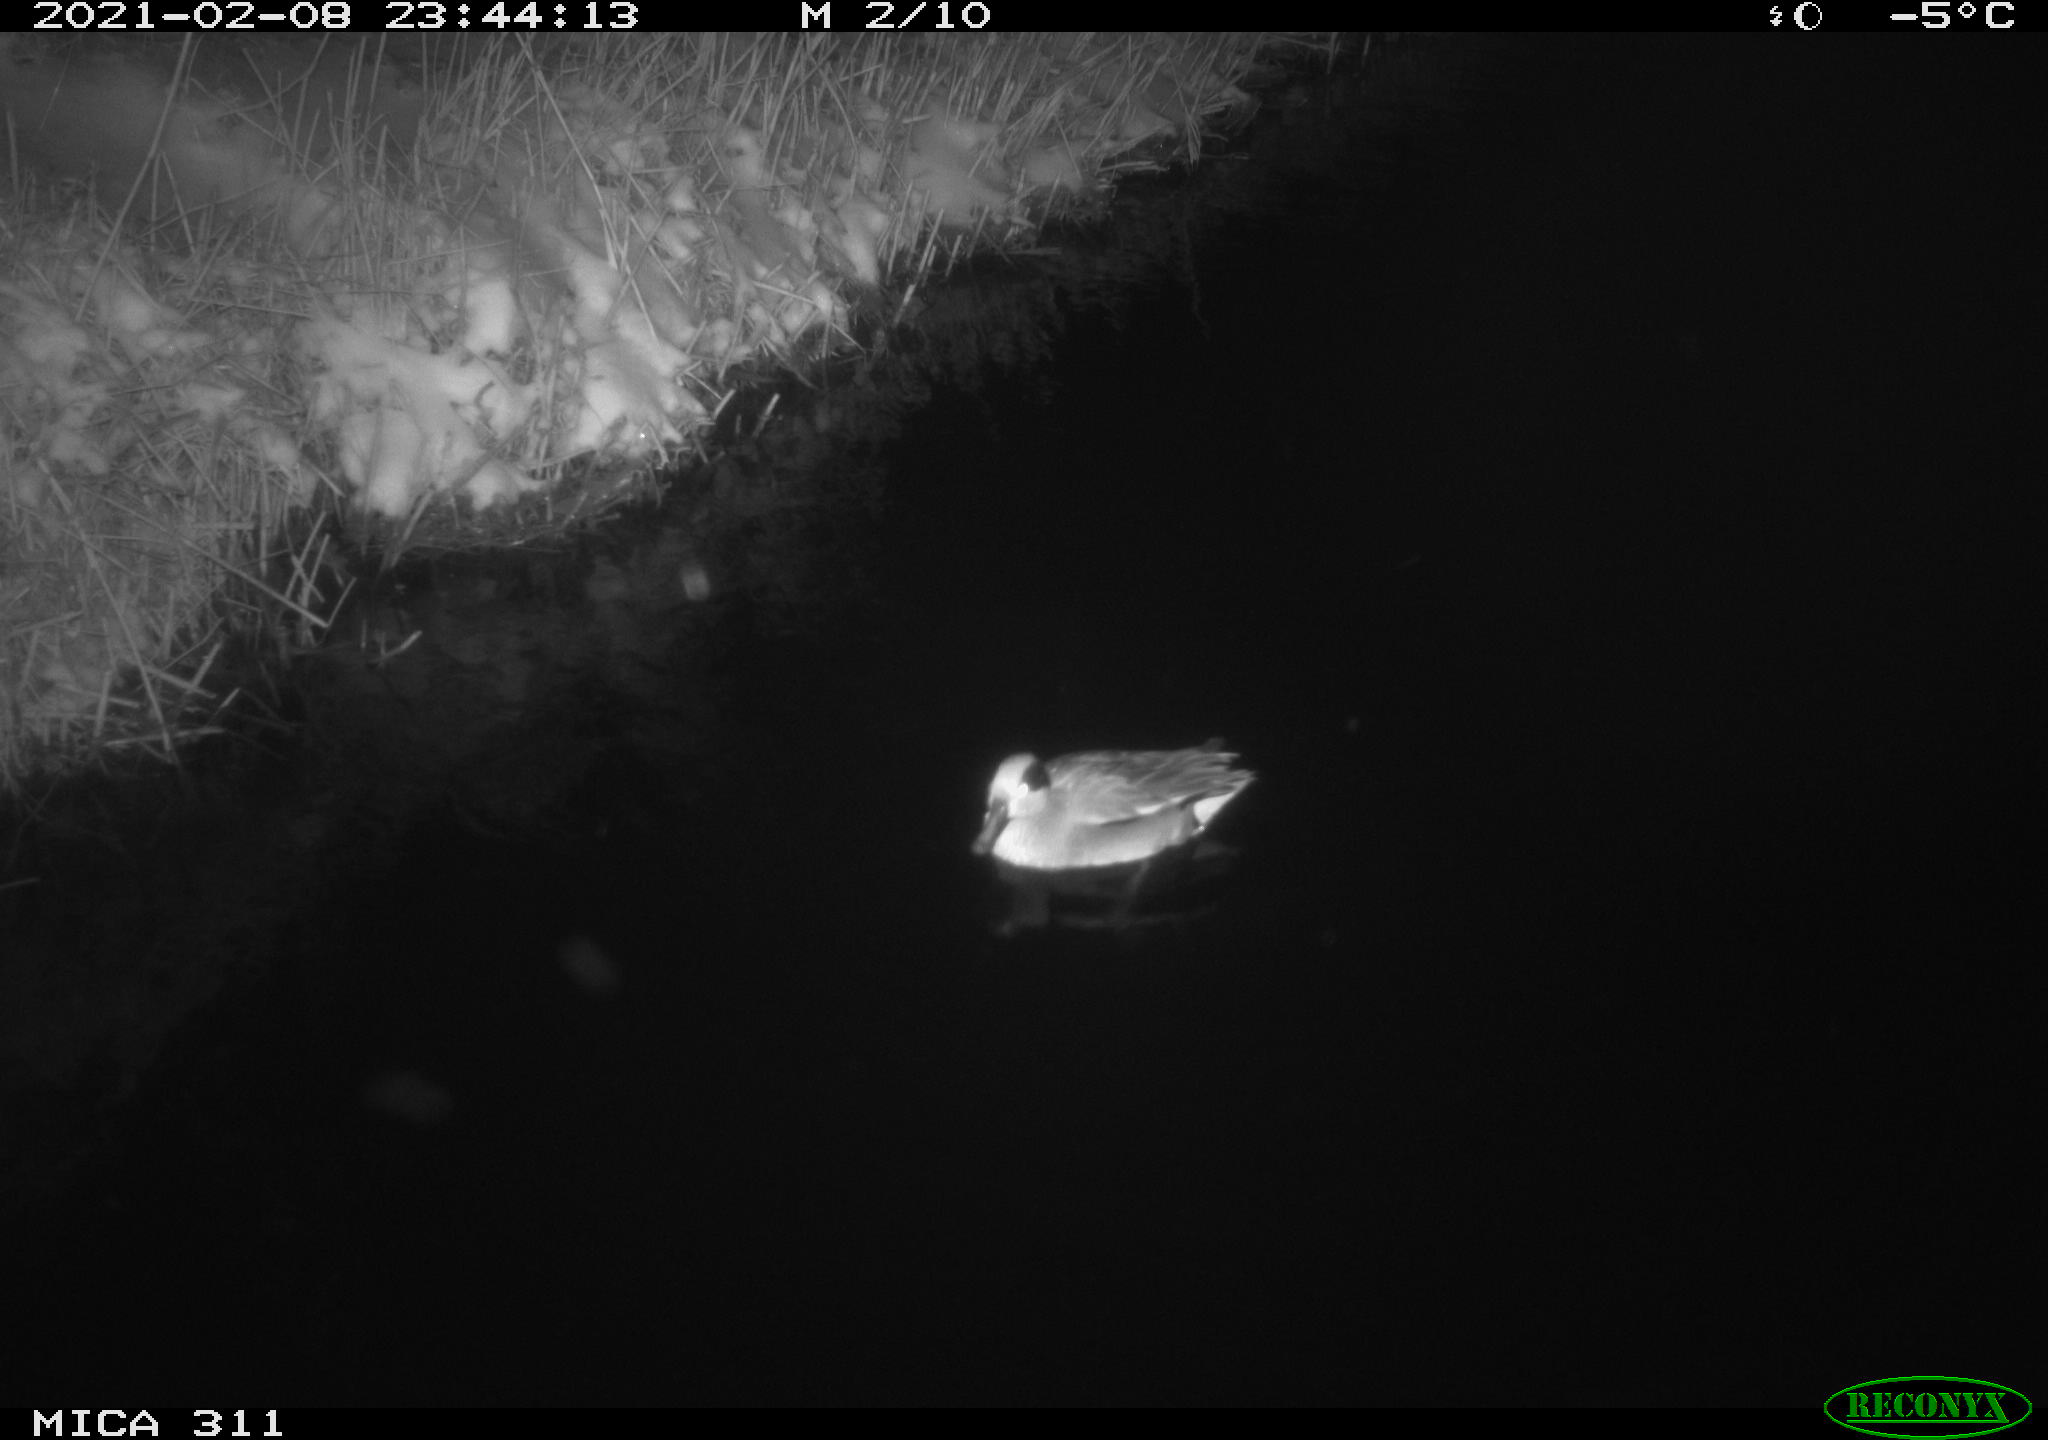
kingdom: Animalia
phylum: Chordata
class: Aves
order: Anseriformes
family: Anatidae
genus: Anas
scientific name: Anas crecca
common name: Eurasian teal
